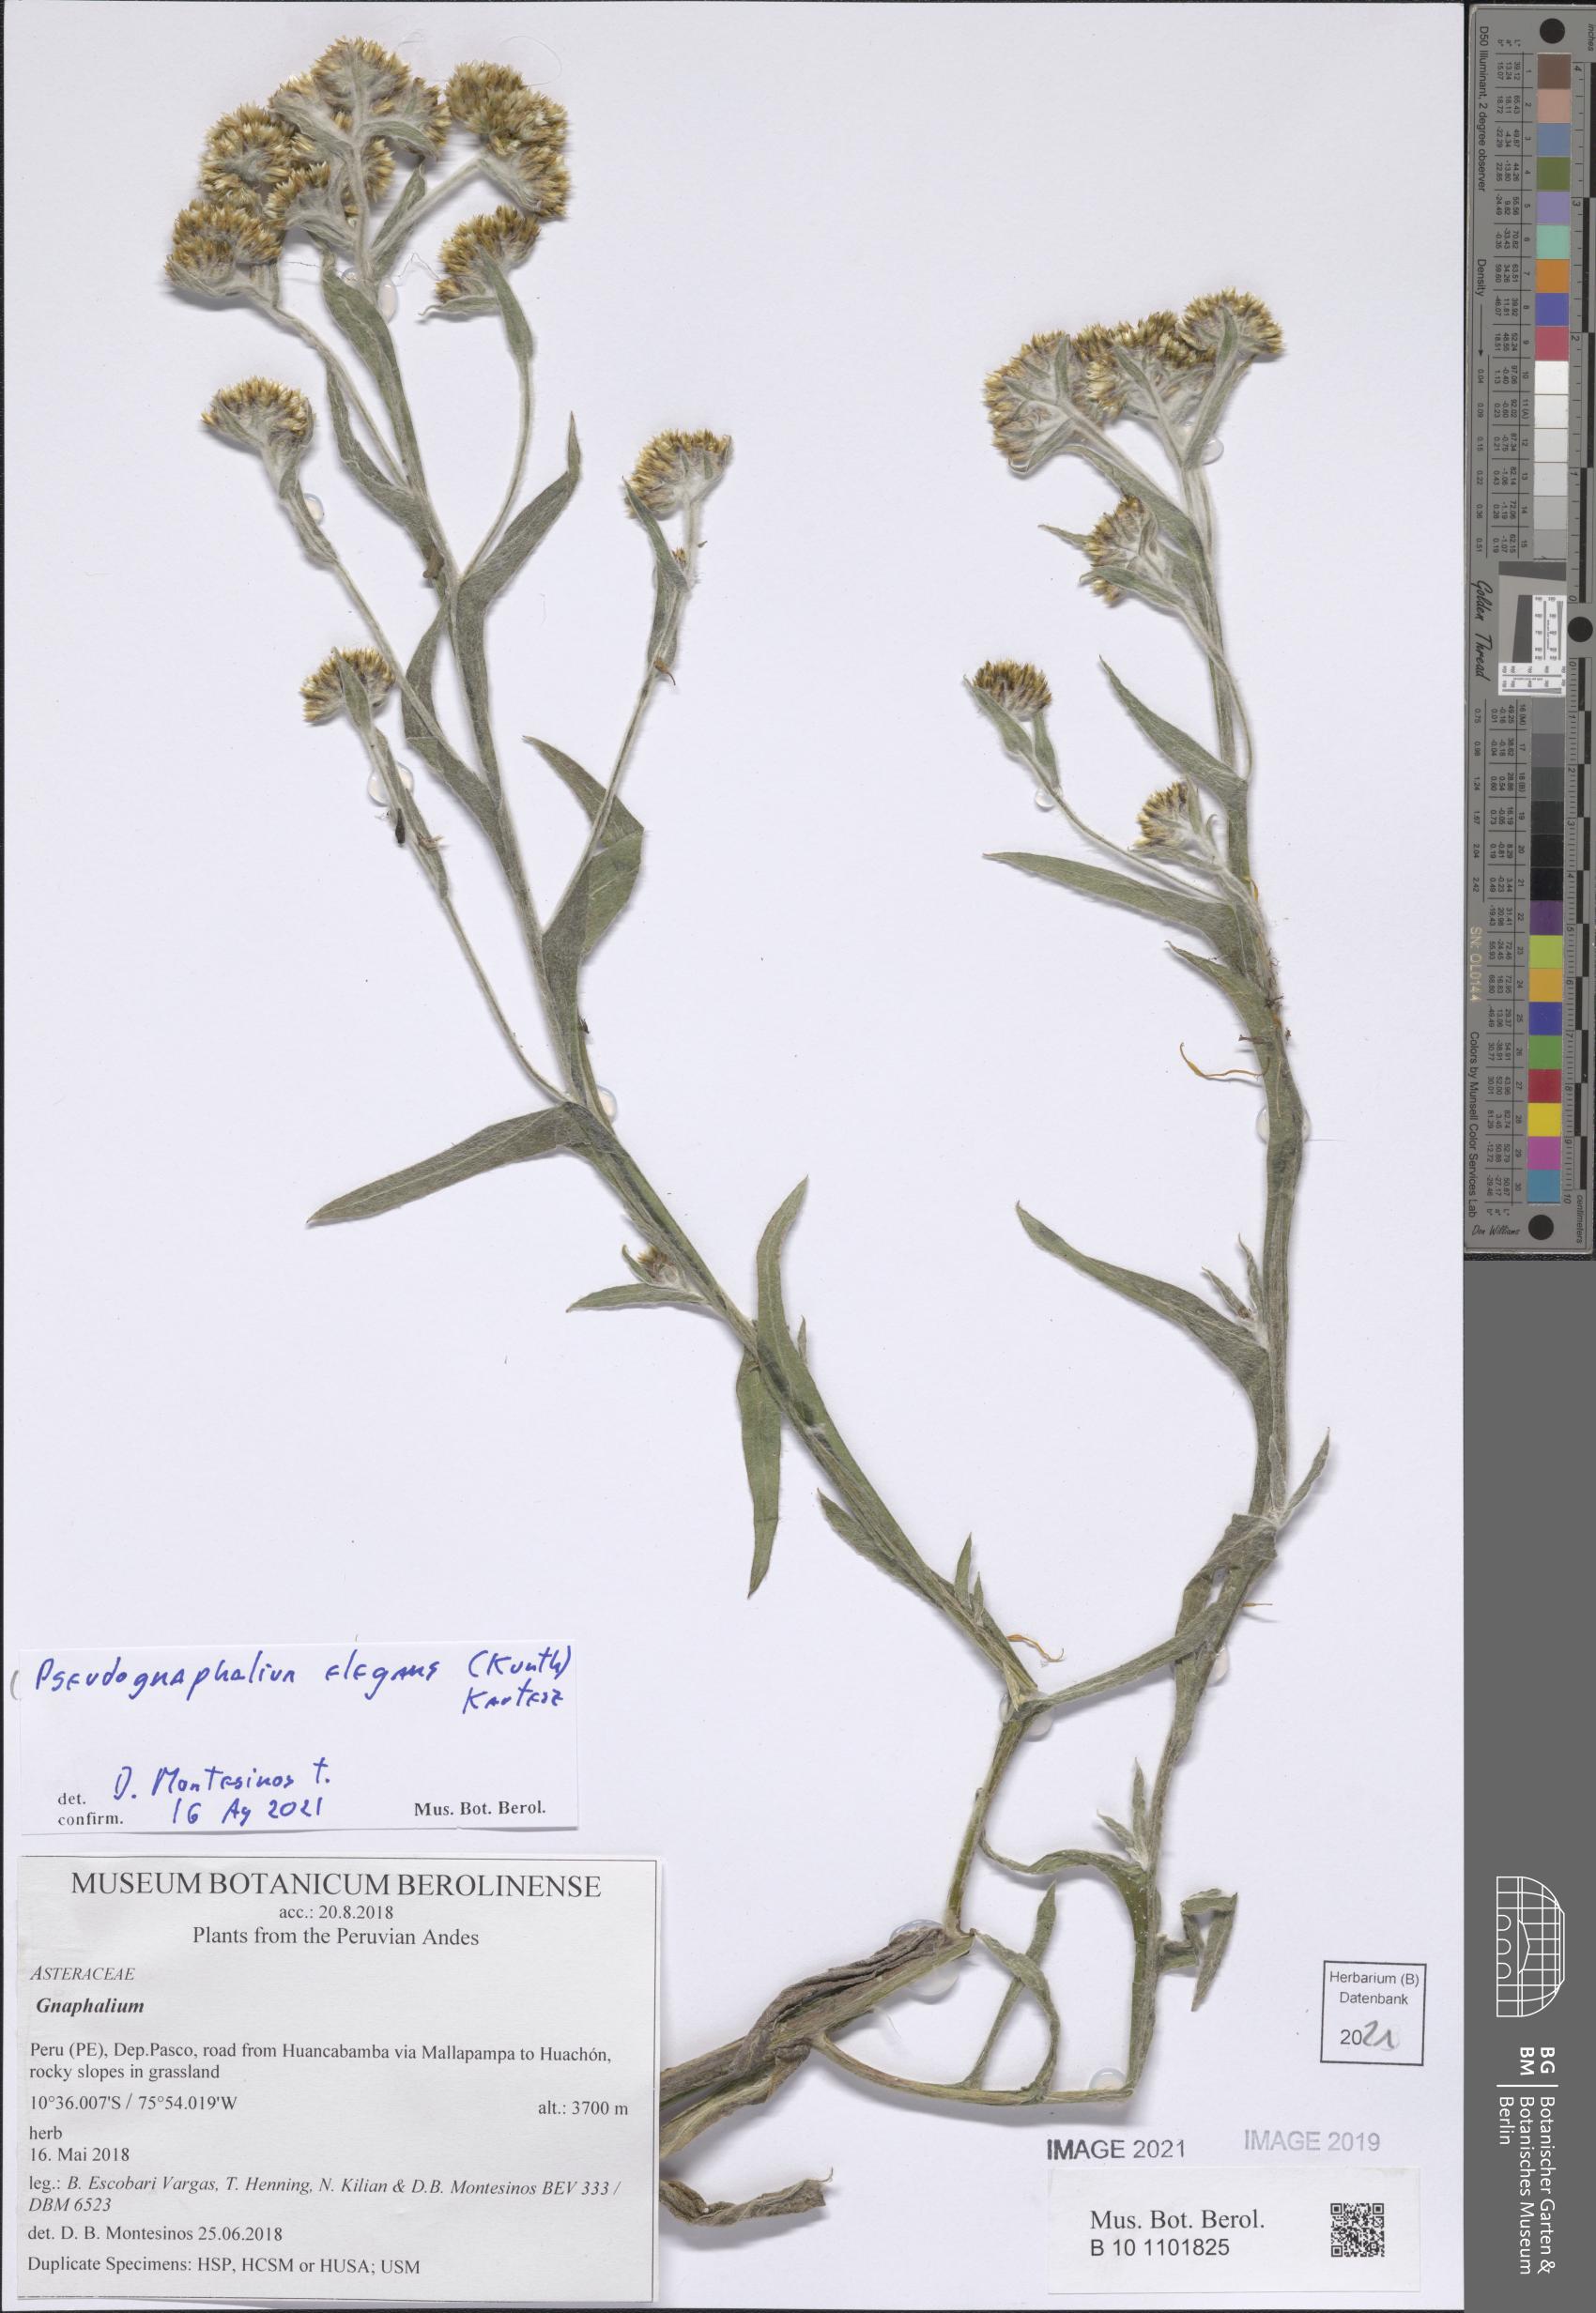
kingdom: Plantae
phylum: Tracheophyta
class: Magnoliopsida
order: Asterales
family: Asteraceae
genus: Pseudognaphalium
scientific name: Pseudognaphalium domingense
